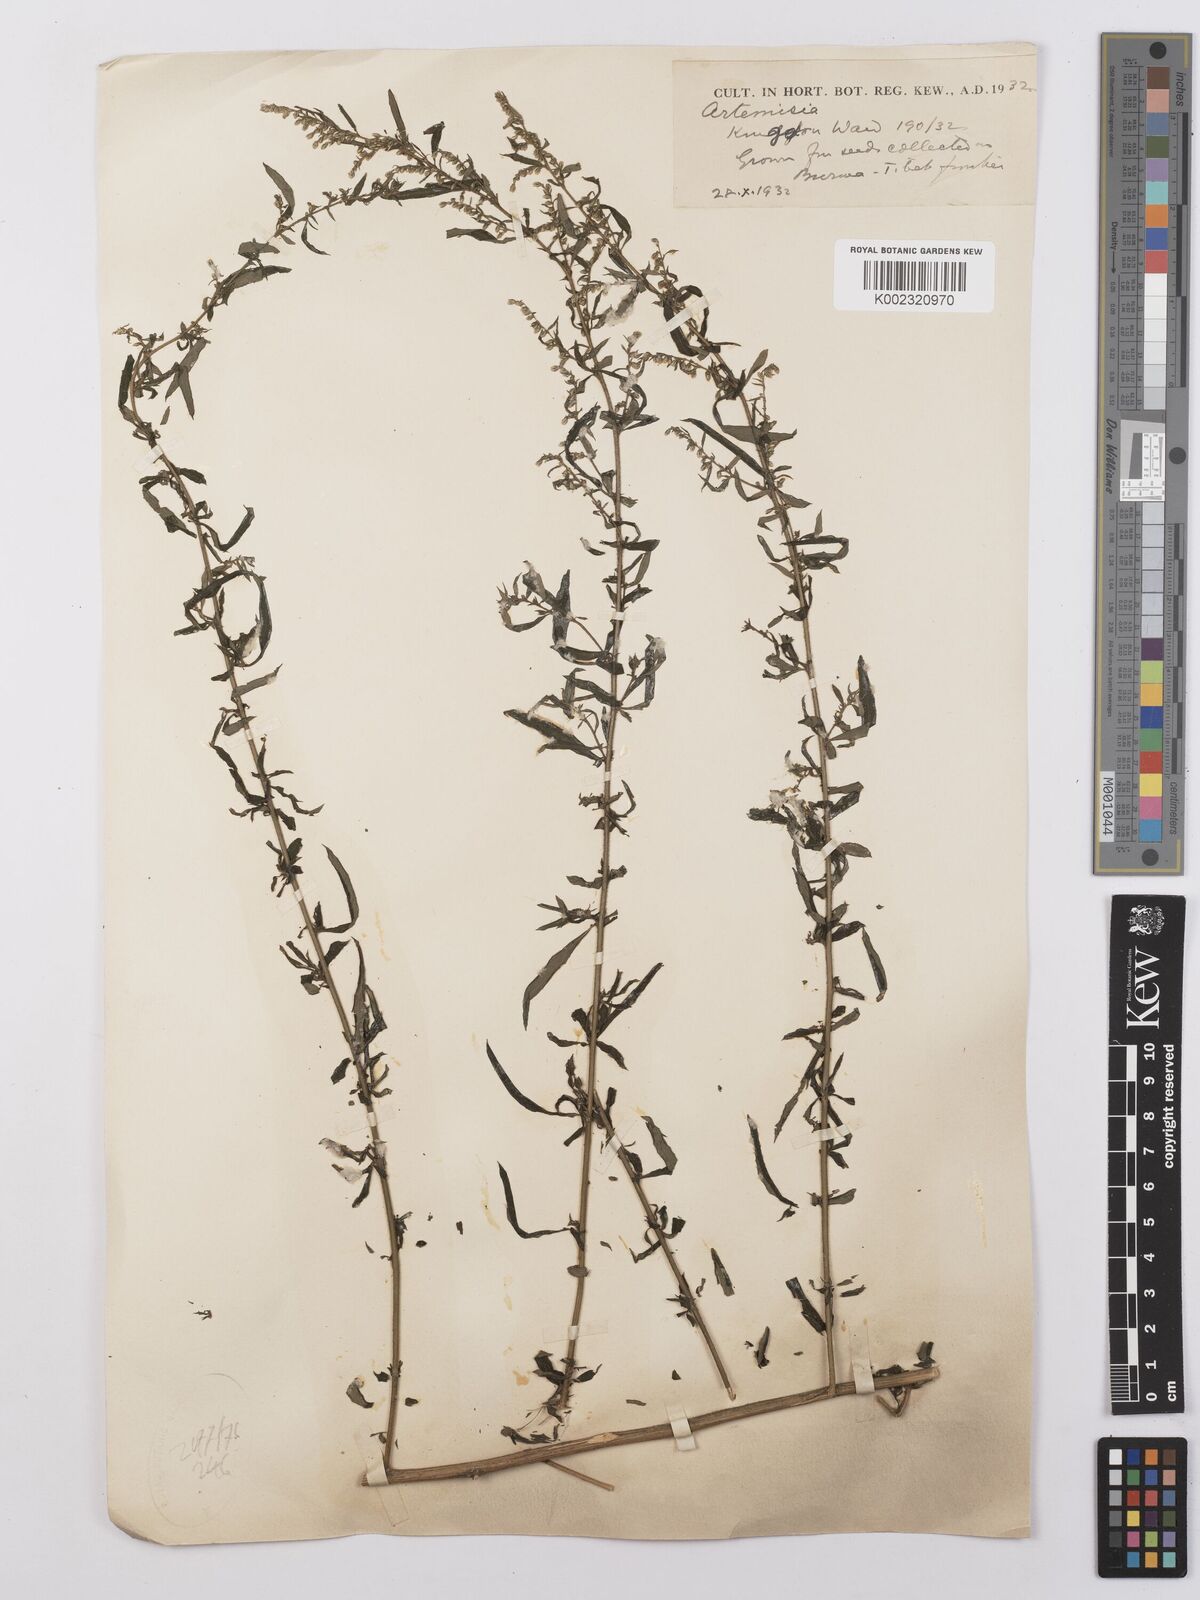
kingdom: Plantae
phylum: Tracheophyta
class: Magnoliopsida
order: Asterales
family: Asteraceae
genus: Artemisia
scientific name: Artemisia
